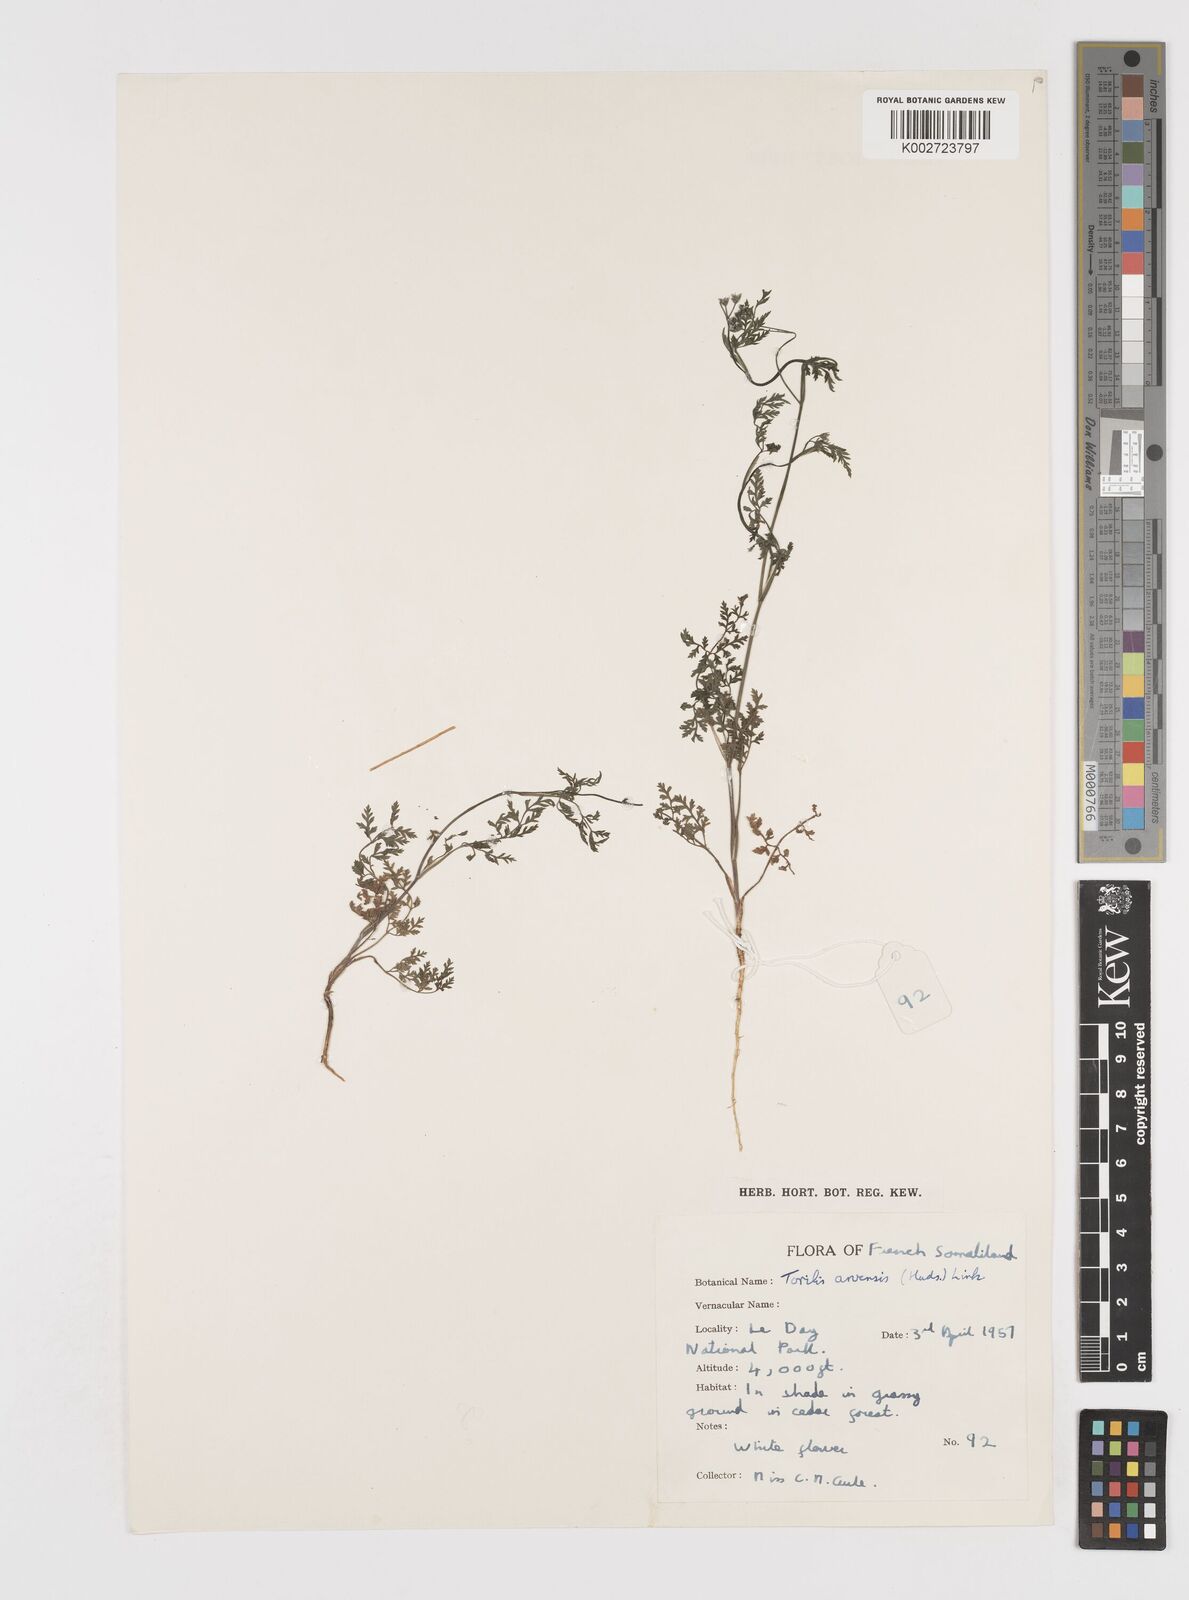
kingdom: Plantae
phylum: Tracheophyta
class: Magnoliopsida
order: Apiales
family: Apiaceae
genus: Torilis
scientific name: Torilis arvensis
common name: Spreading hedge-parsley
